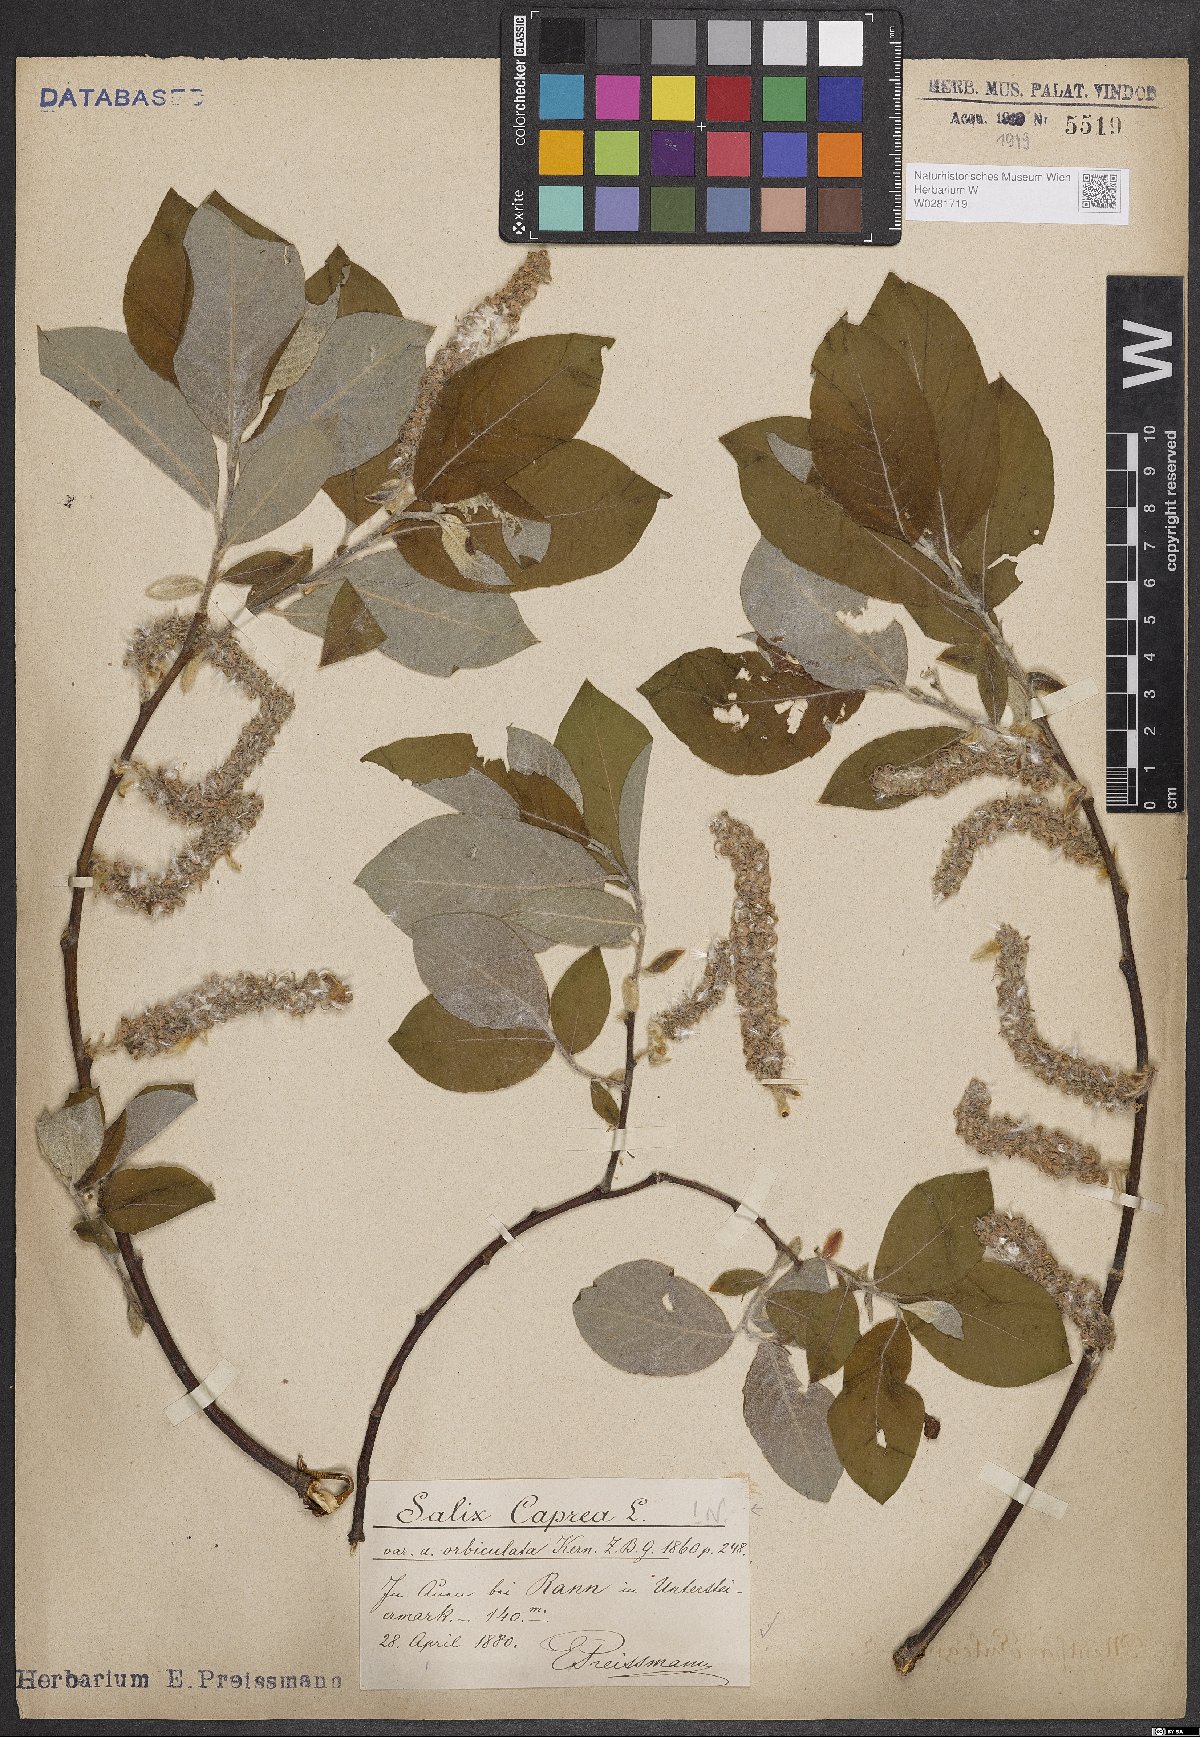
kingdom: Plantae
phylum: Tracheophyta
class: Magnoliopsida
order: Malpighiales
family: Salicaceae
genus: Salix
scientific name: Salix caprea
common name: Goat willow
